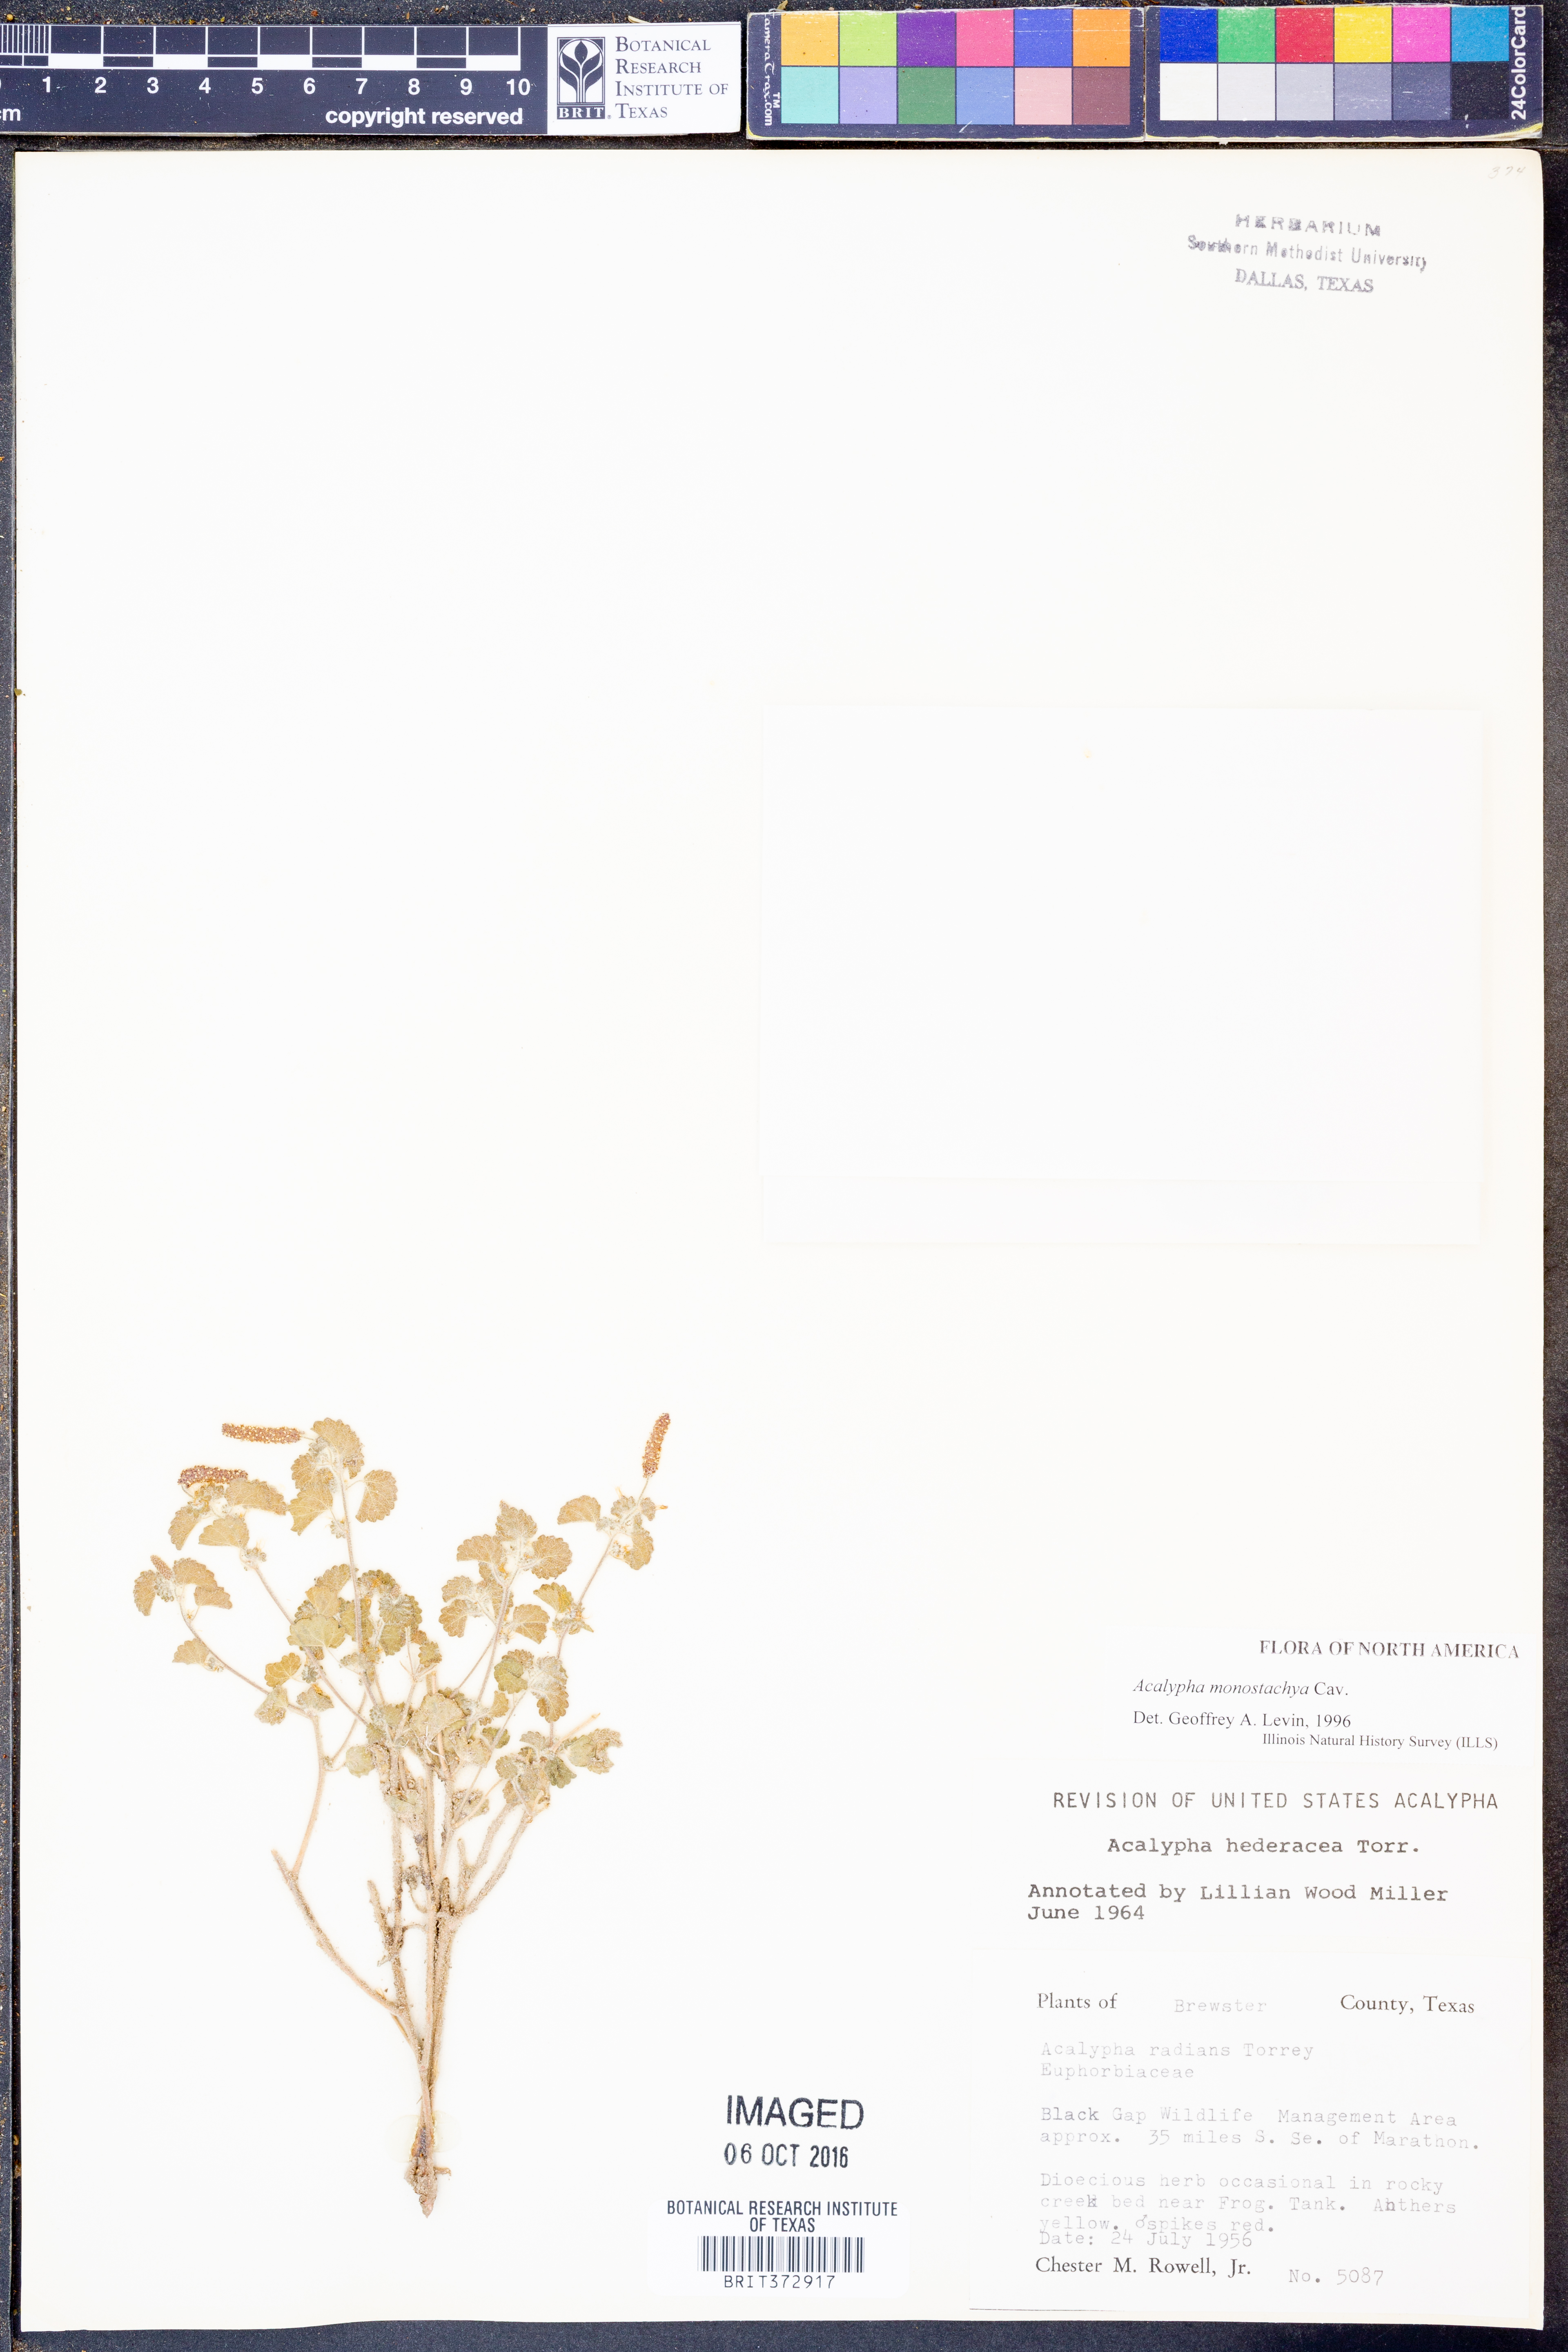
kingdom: Plantae
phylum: Tracheophyta
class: Magnoliopsida
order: Malpighiales
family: Euphorbiaceae
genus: Acalypha
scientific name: Acalypha monostachya
